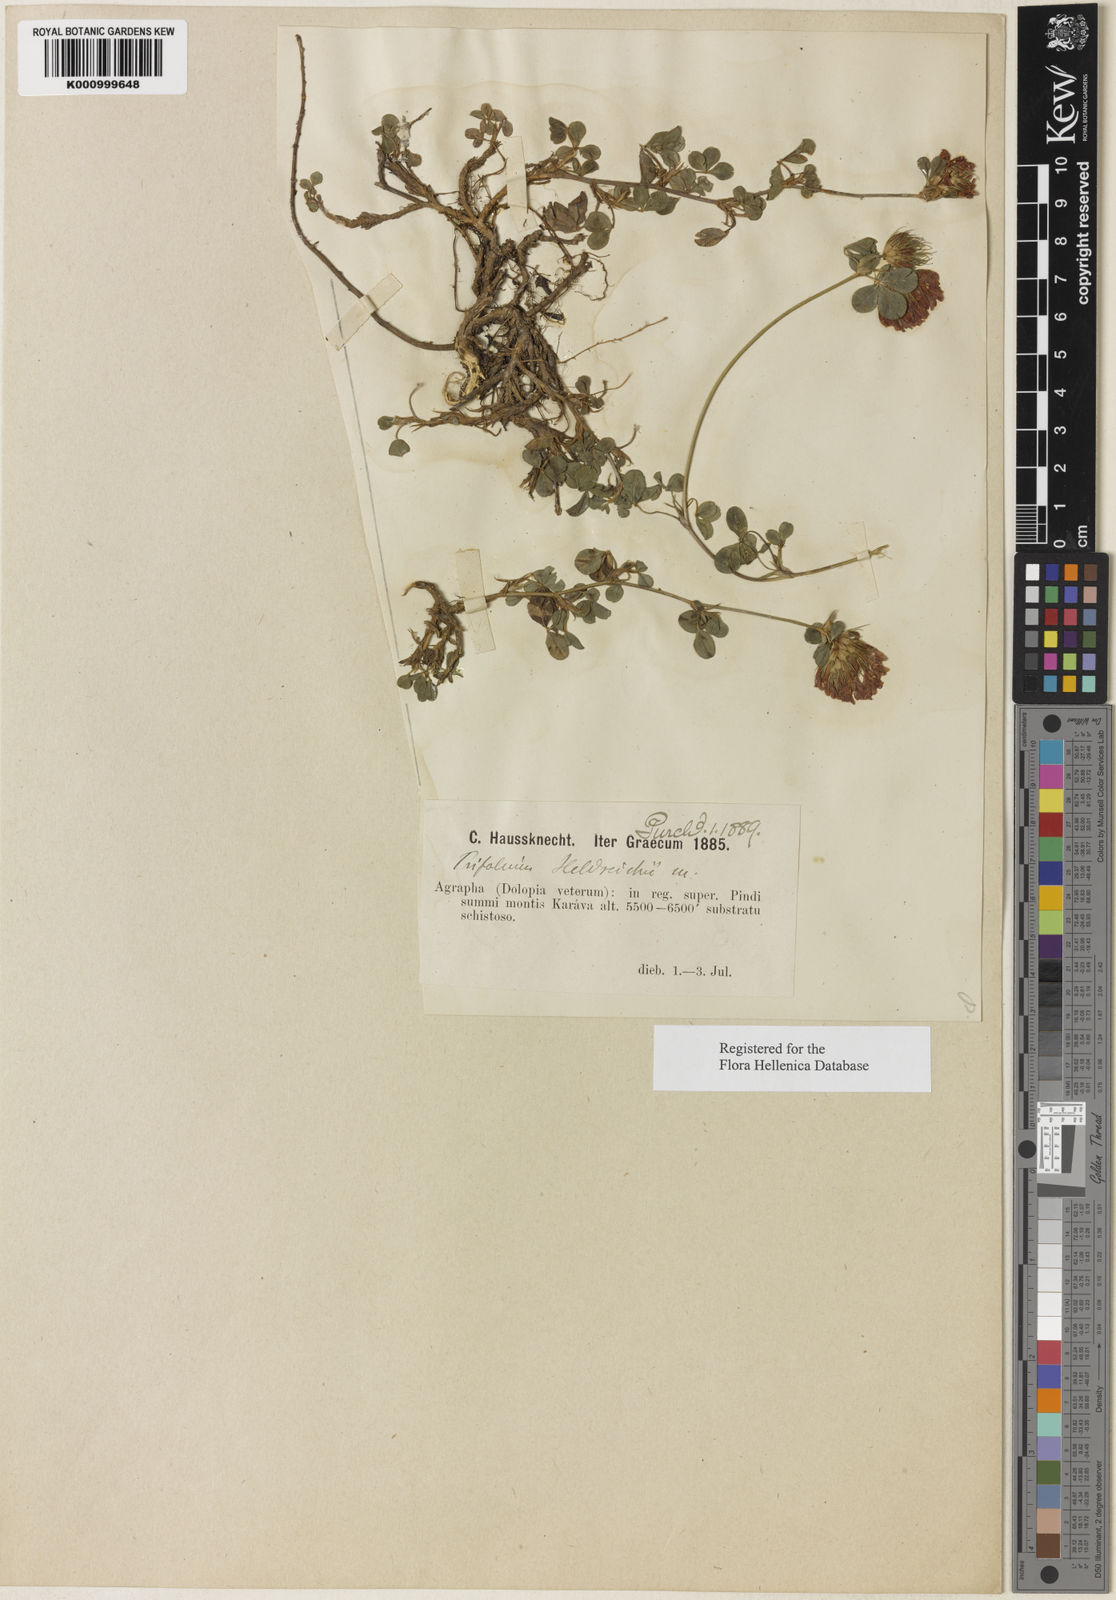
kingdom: Plantae
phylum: Tracheophyta
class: Magnoliopsida
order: Fabales
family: Fabaceae
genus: Trifolium
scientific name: Trifolium heldreichianum
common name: Heldreich's clover
